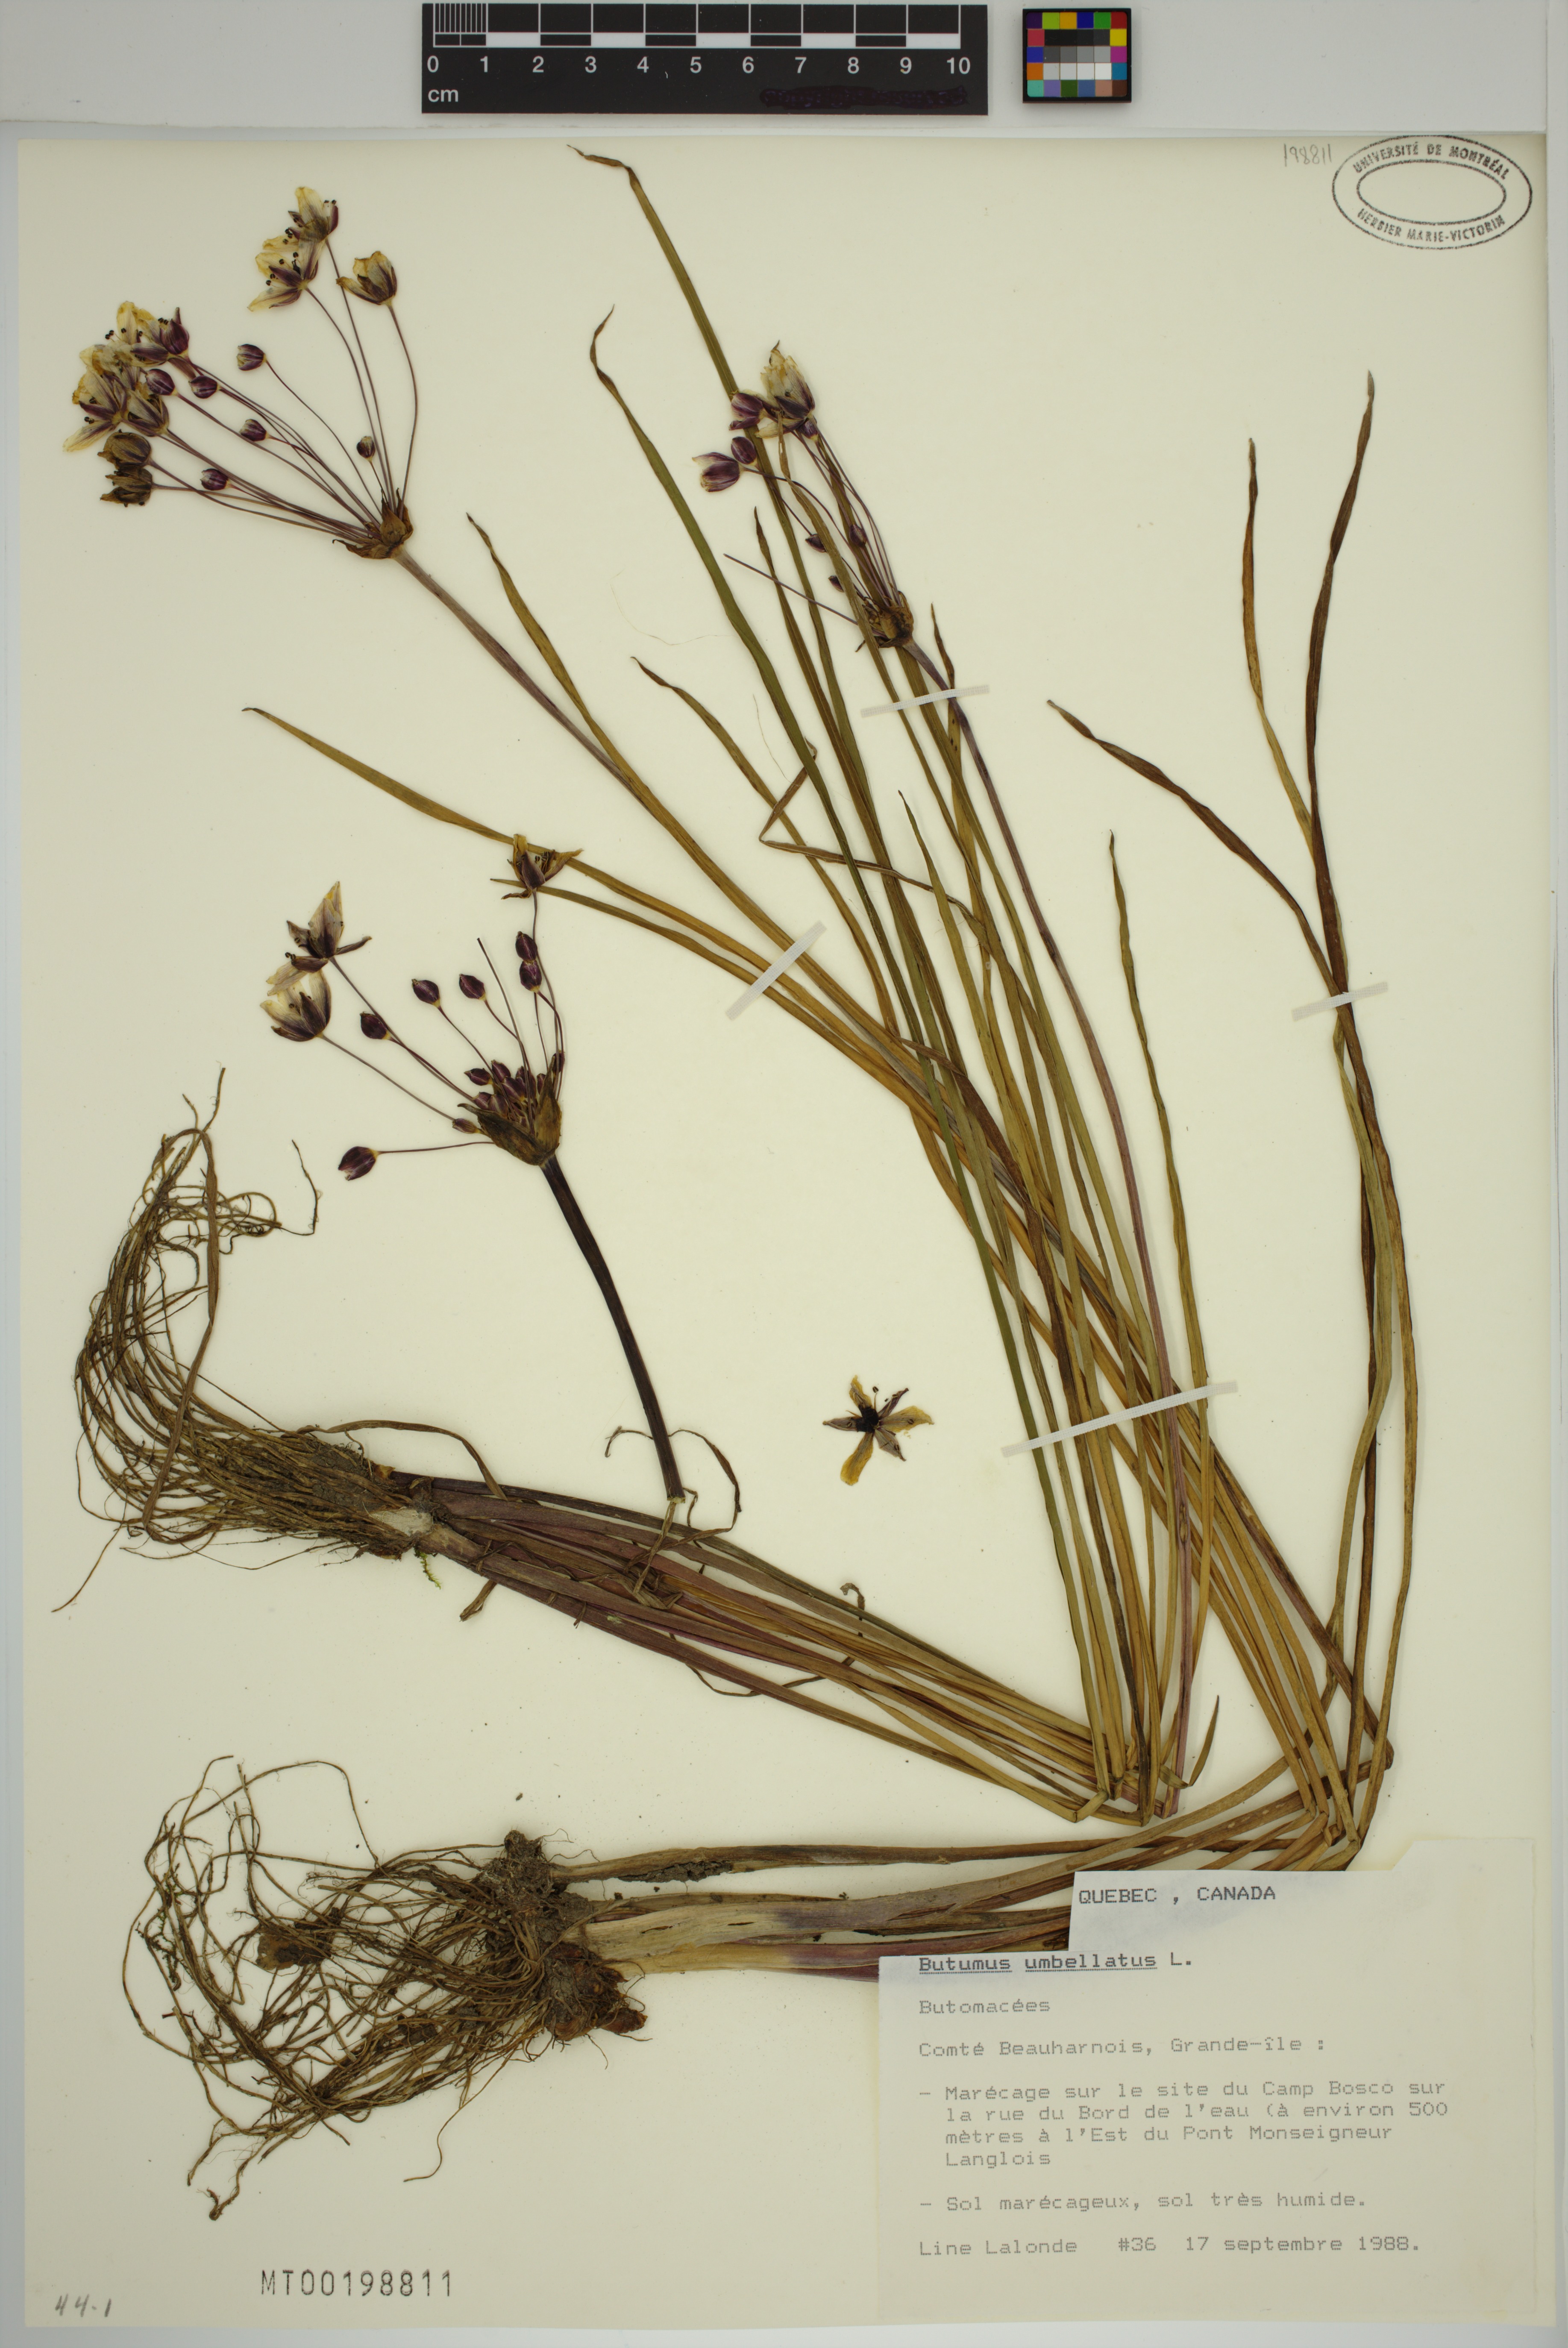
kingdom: Plantae
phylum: Tracheophyta
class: Liliopsida
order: Alismatales
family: Butomaceae
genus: Butomus
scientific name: Butomus umbellatus
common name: Flowering-rush
